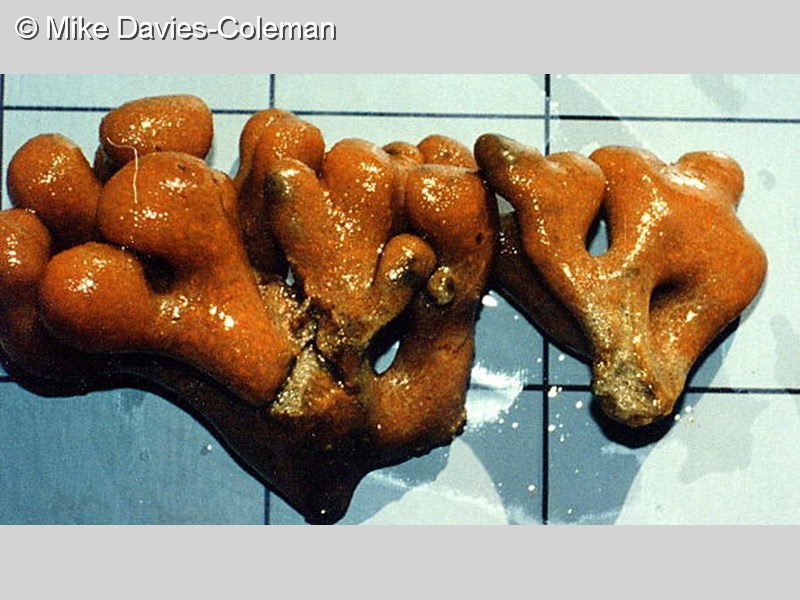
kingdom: Animalia
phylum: Chordata
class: Ascidiacea
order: Aplousobranchia
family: Polyclinidae
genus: Polyclinum
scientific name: Polyclinum
